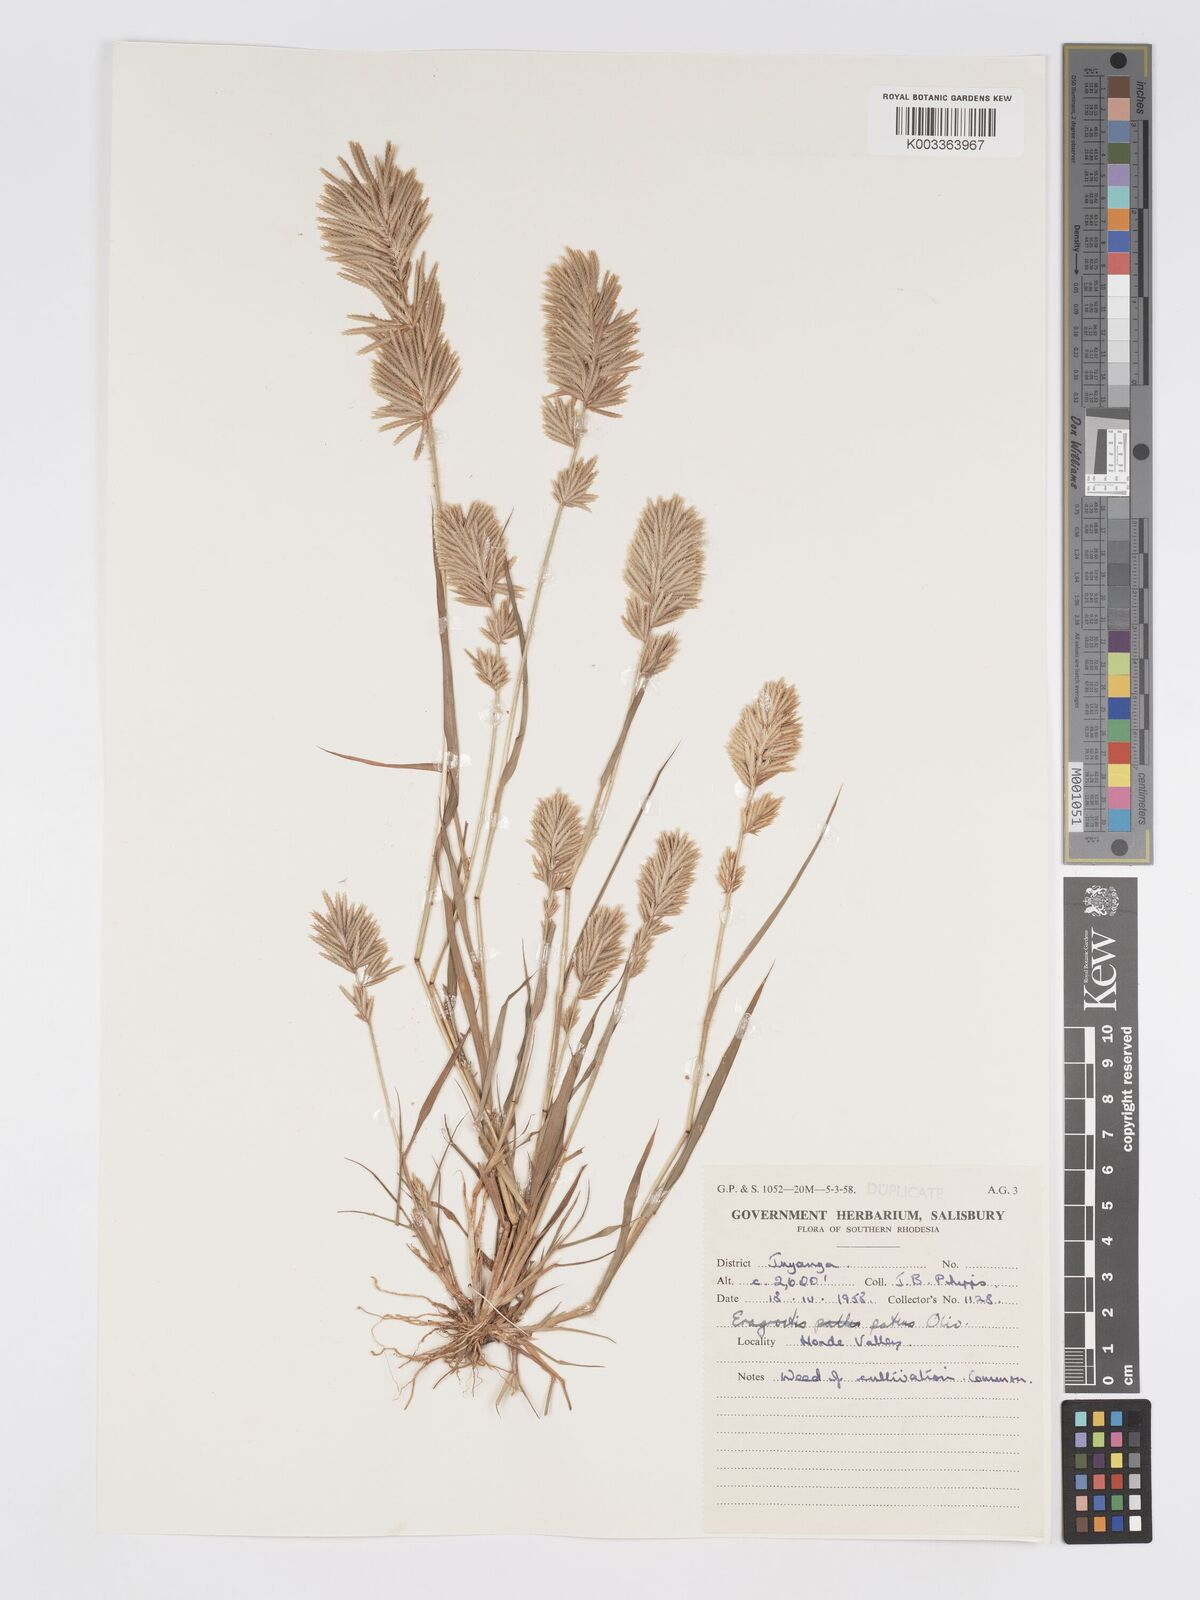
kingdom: Plantae
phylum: Tracheophyta
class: Liliopsida
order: Poales
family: Poaceae
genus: Eragrostis
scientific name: Eragrostis patens
